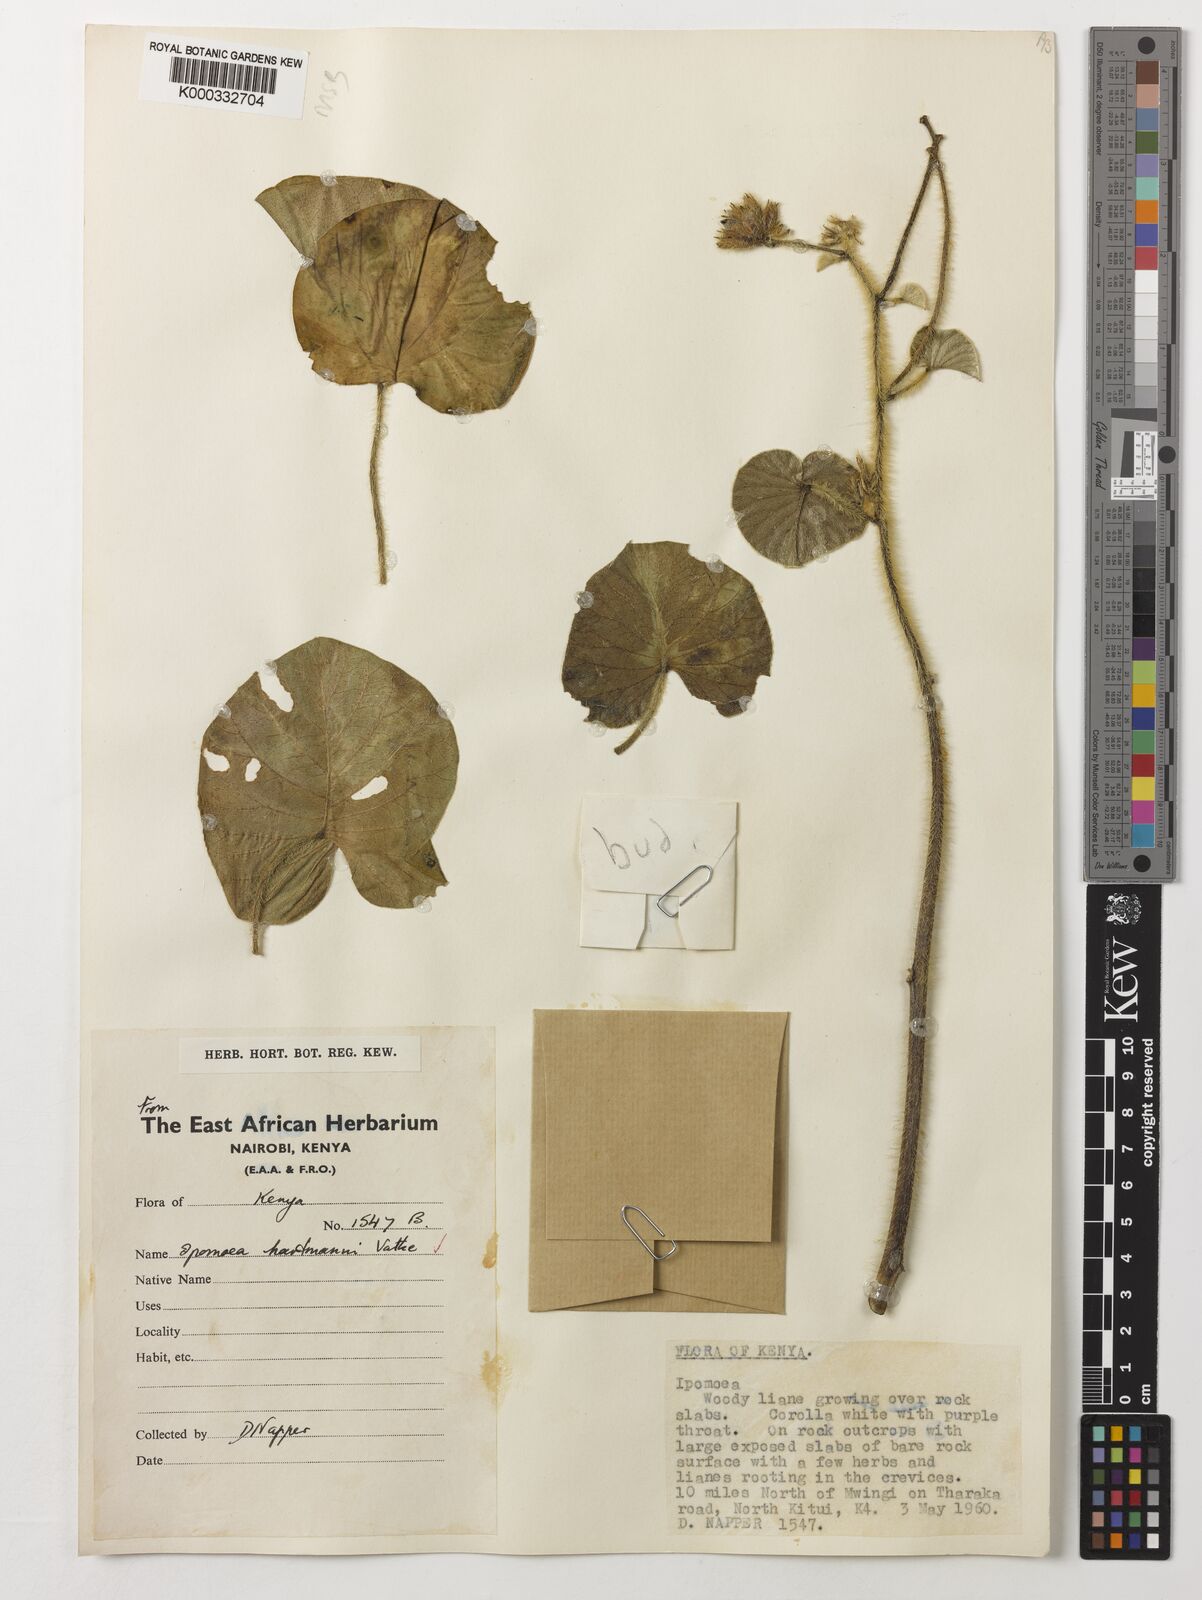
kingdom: Plantae
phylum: Tracheophyta
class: Magnoliopsida
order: Solanales
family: Convolvulaceae
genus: Ipomoea
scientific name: Ipomoea hartmannii
